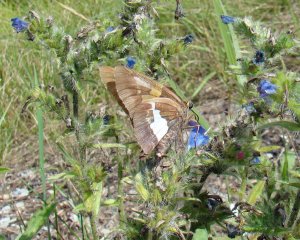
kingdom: Animalia
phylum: Arthropoda
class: Insecta
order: Lepidoptera
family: Hesperiidae
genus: Epargyreus
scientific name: Epargyreus clarus
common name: Silver-spotted Skipper
